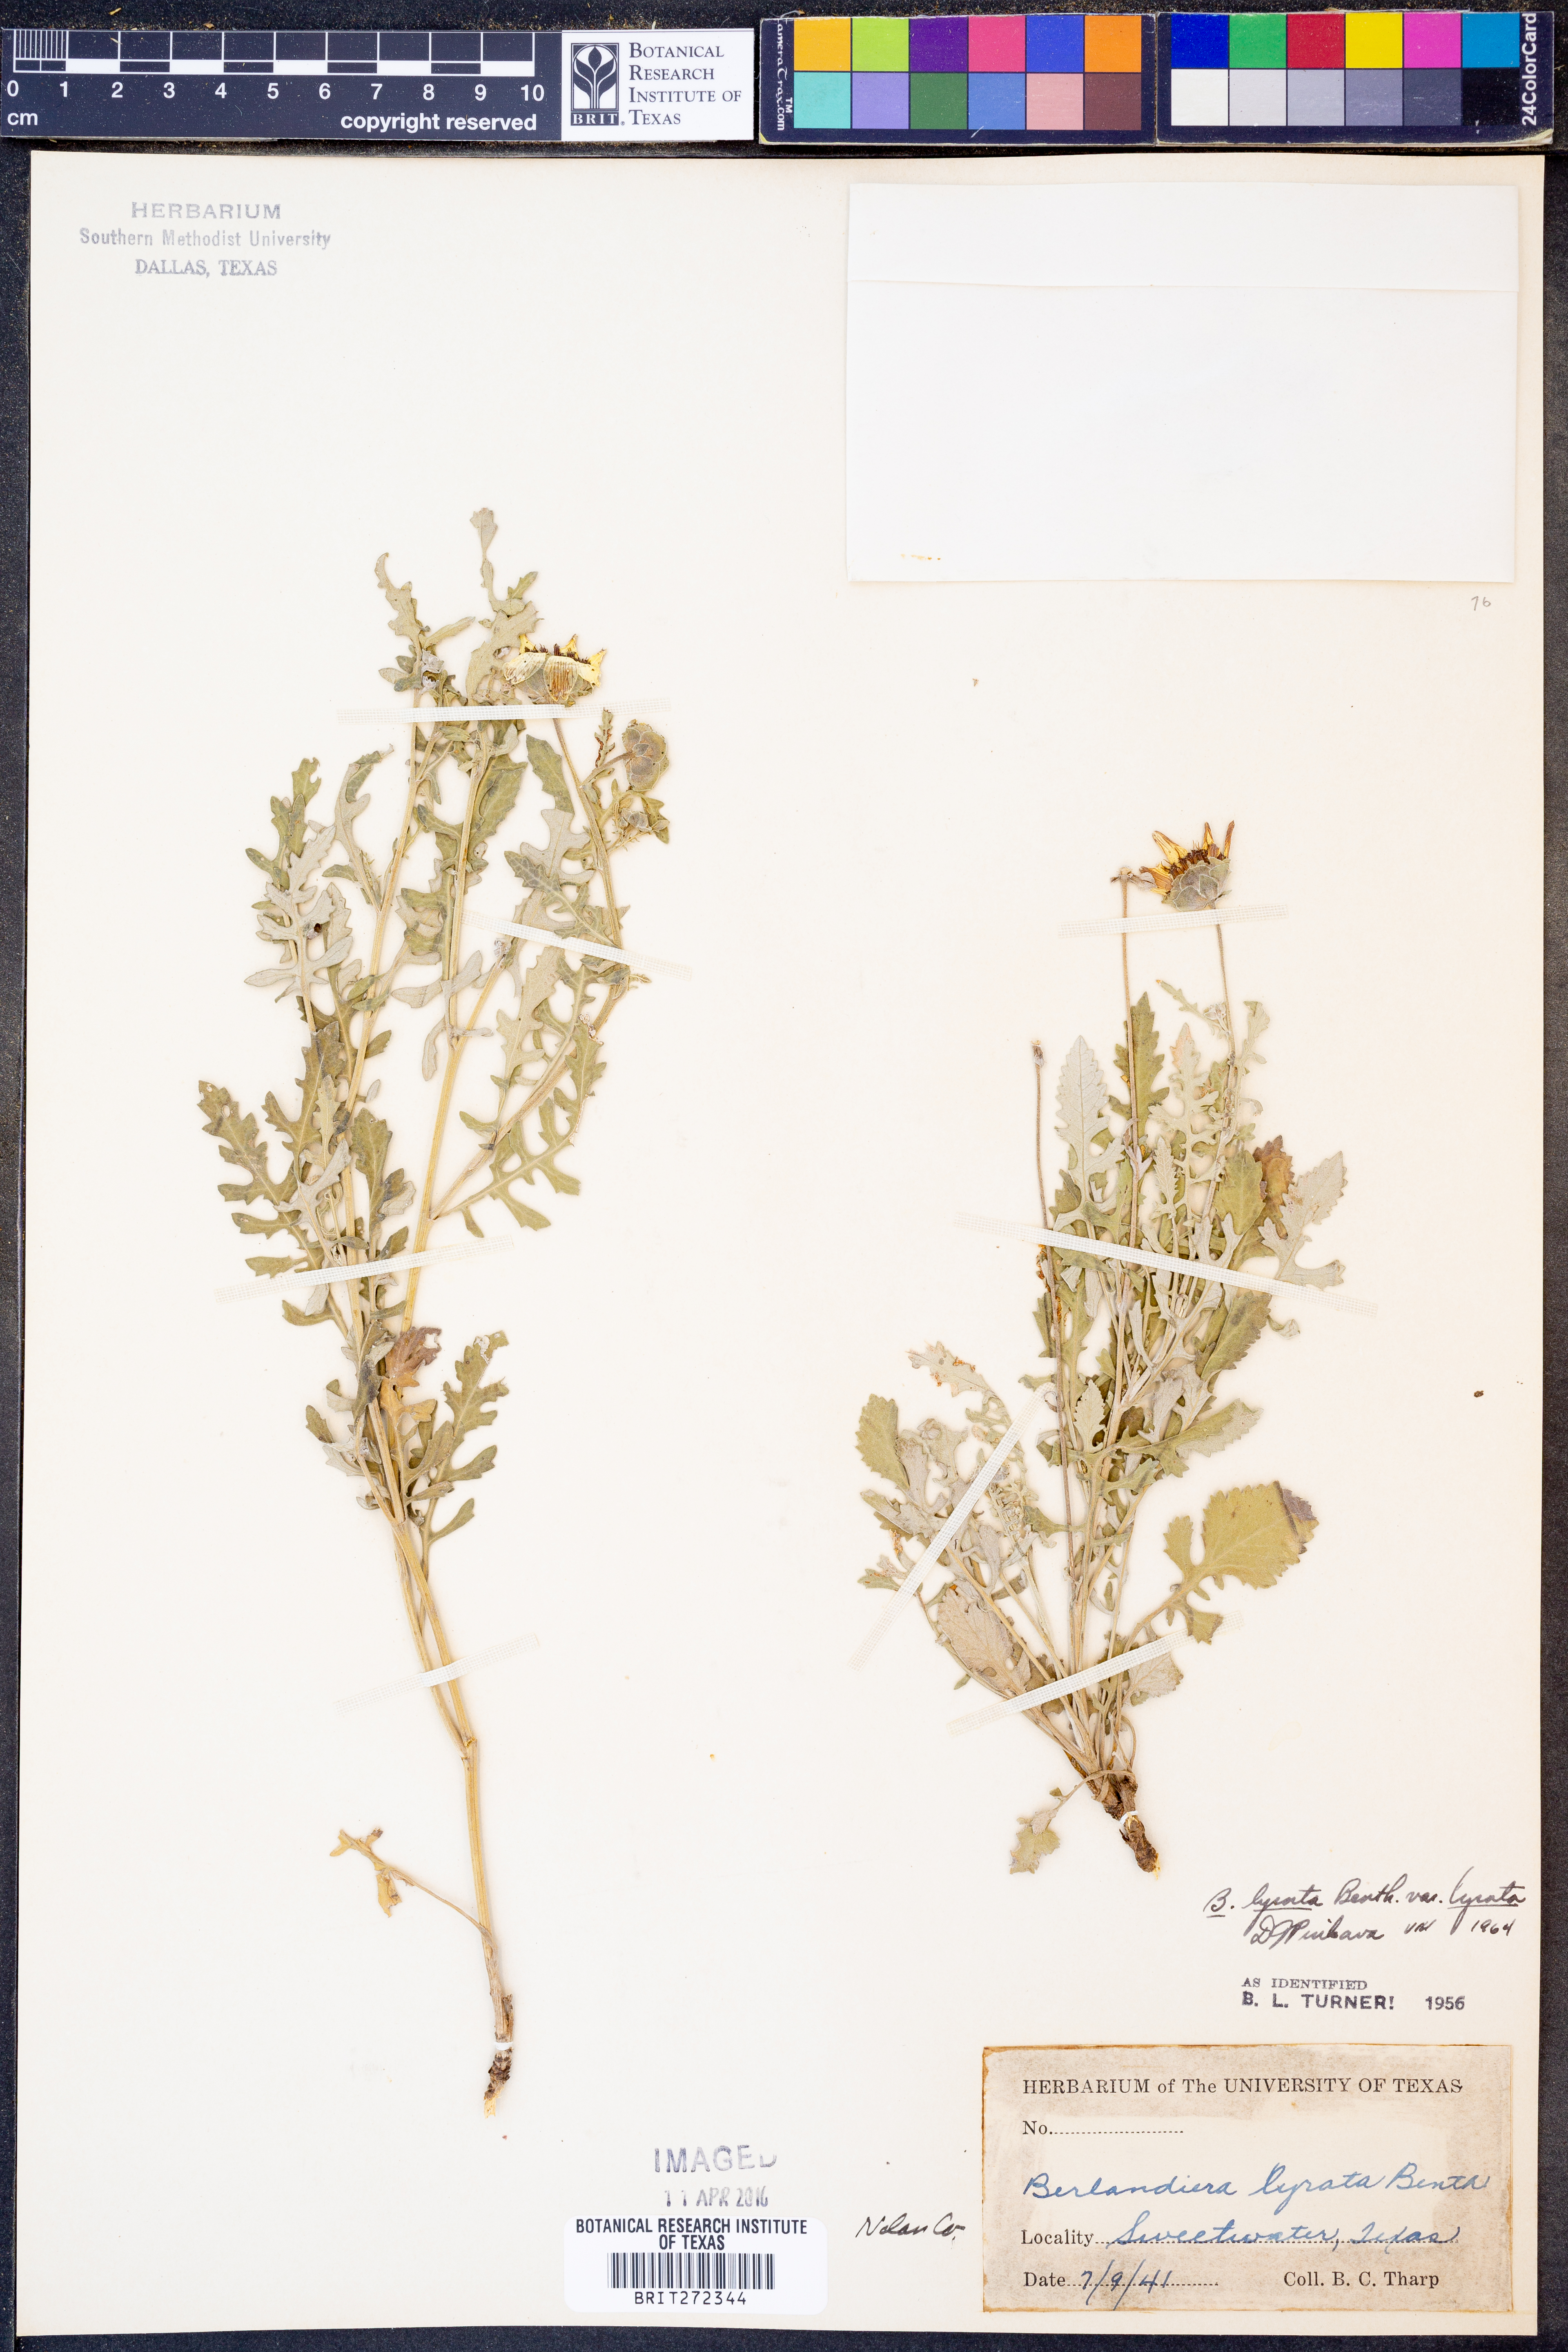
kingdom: Plantae
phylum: Tracheophyta
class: Magnoliopsida
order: Asterales
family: Asteraceae
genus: Berlandiera
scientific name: Berlandiera lyrata
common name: Chocolate-flower
